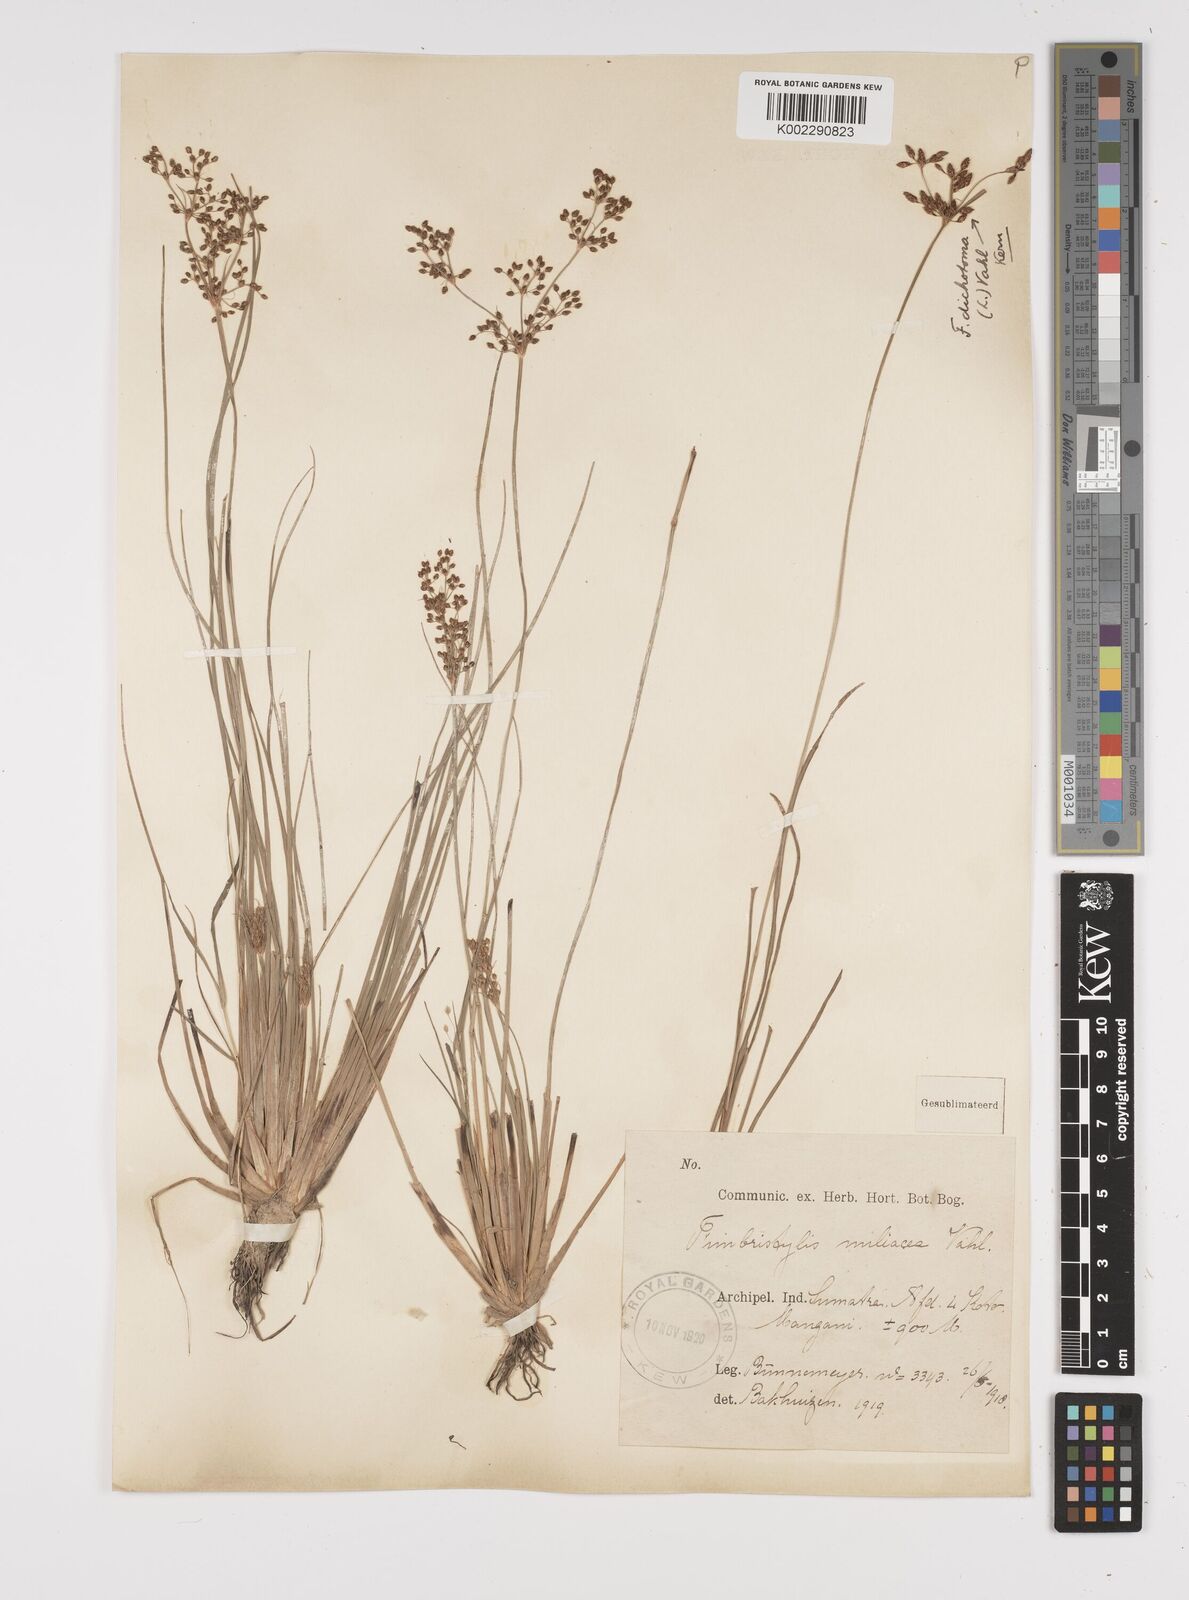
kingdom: Plantae
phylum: Tracheophyta
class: Liliopsida
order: Poales
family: Cyperaceae
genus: Fimbristylis
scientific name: Fimbristylis littoralis
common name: Fimbry
